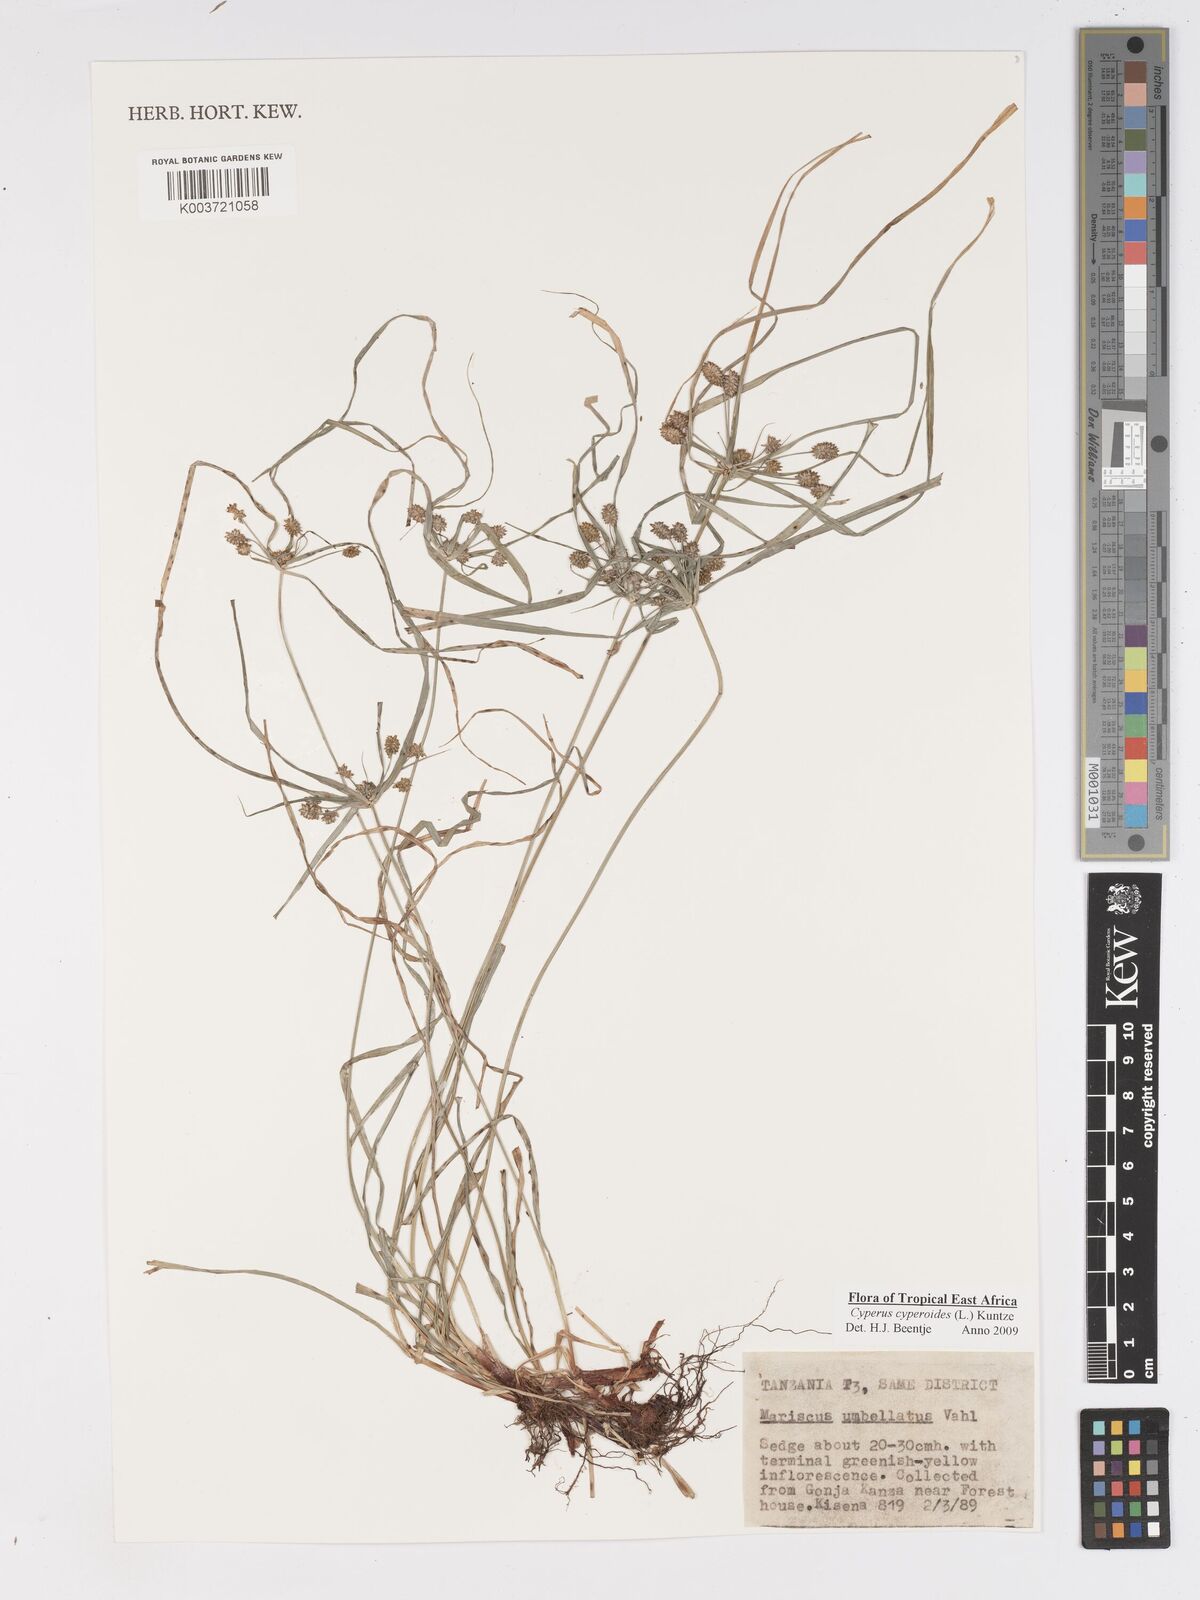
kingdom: Plantae
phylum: Tracheophyta
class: Liliopsida
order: Poales
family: Cyperaceae
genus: Cyperus
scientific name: Cyperus cyperoides
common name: Pacific island flat sedge
